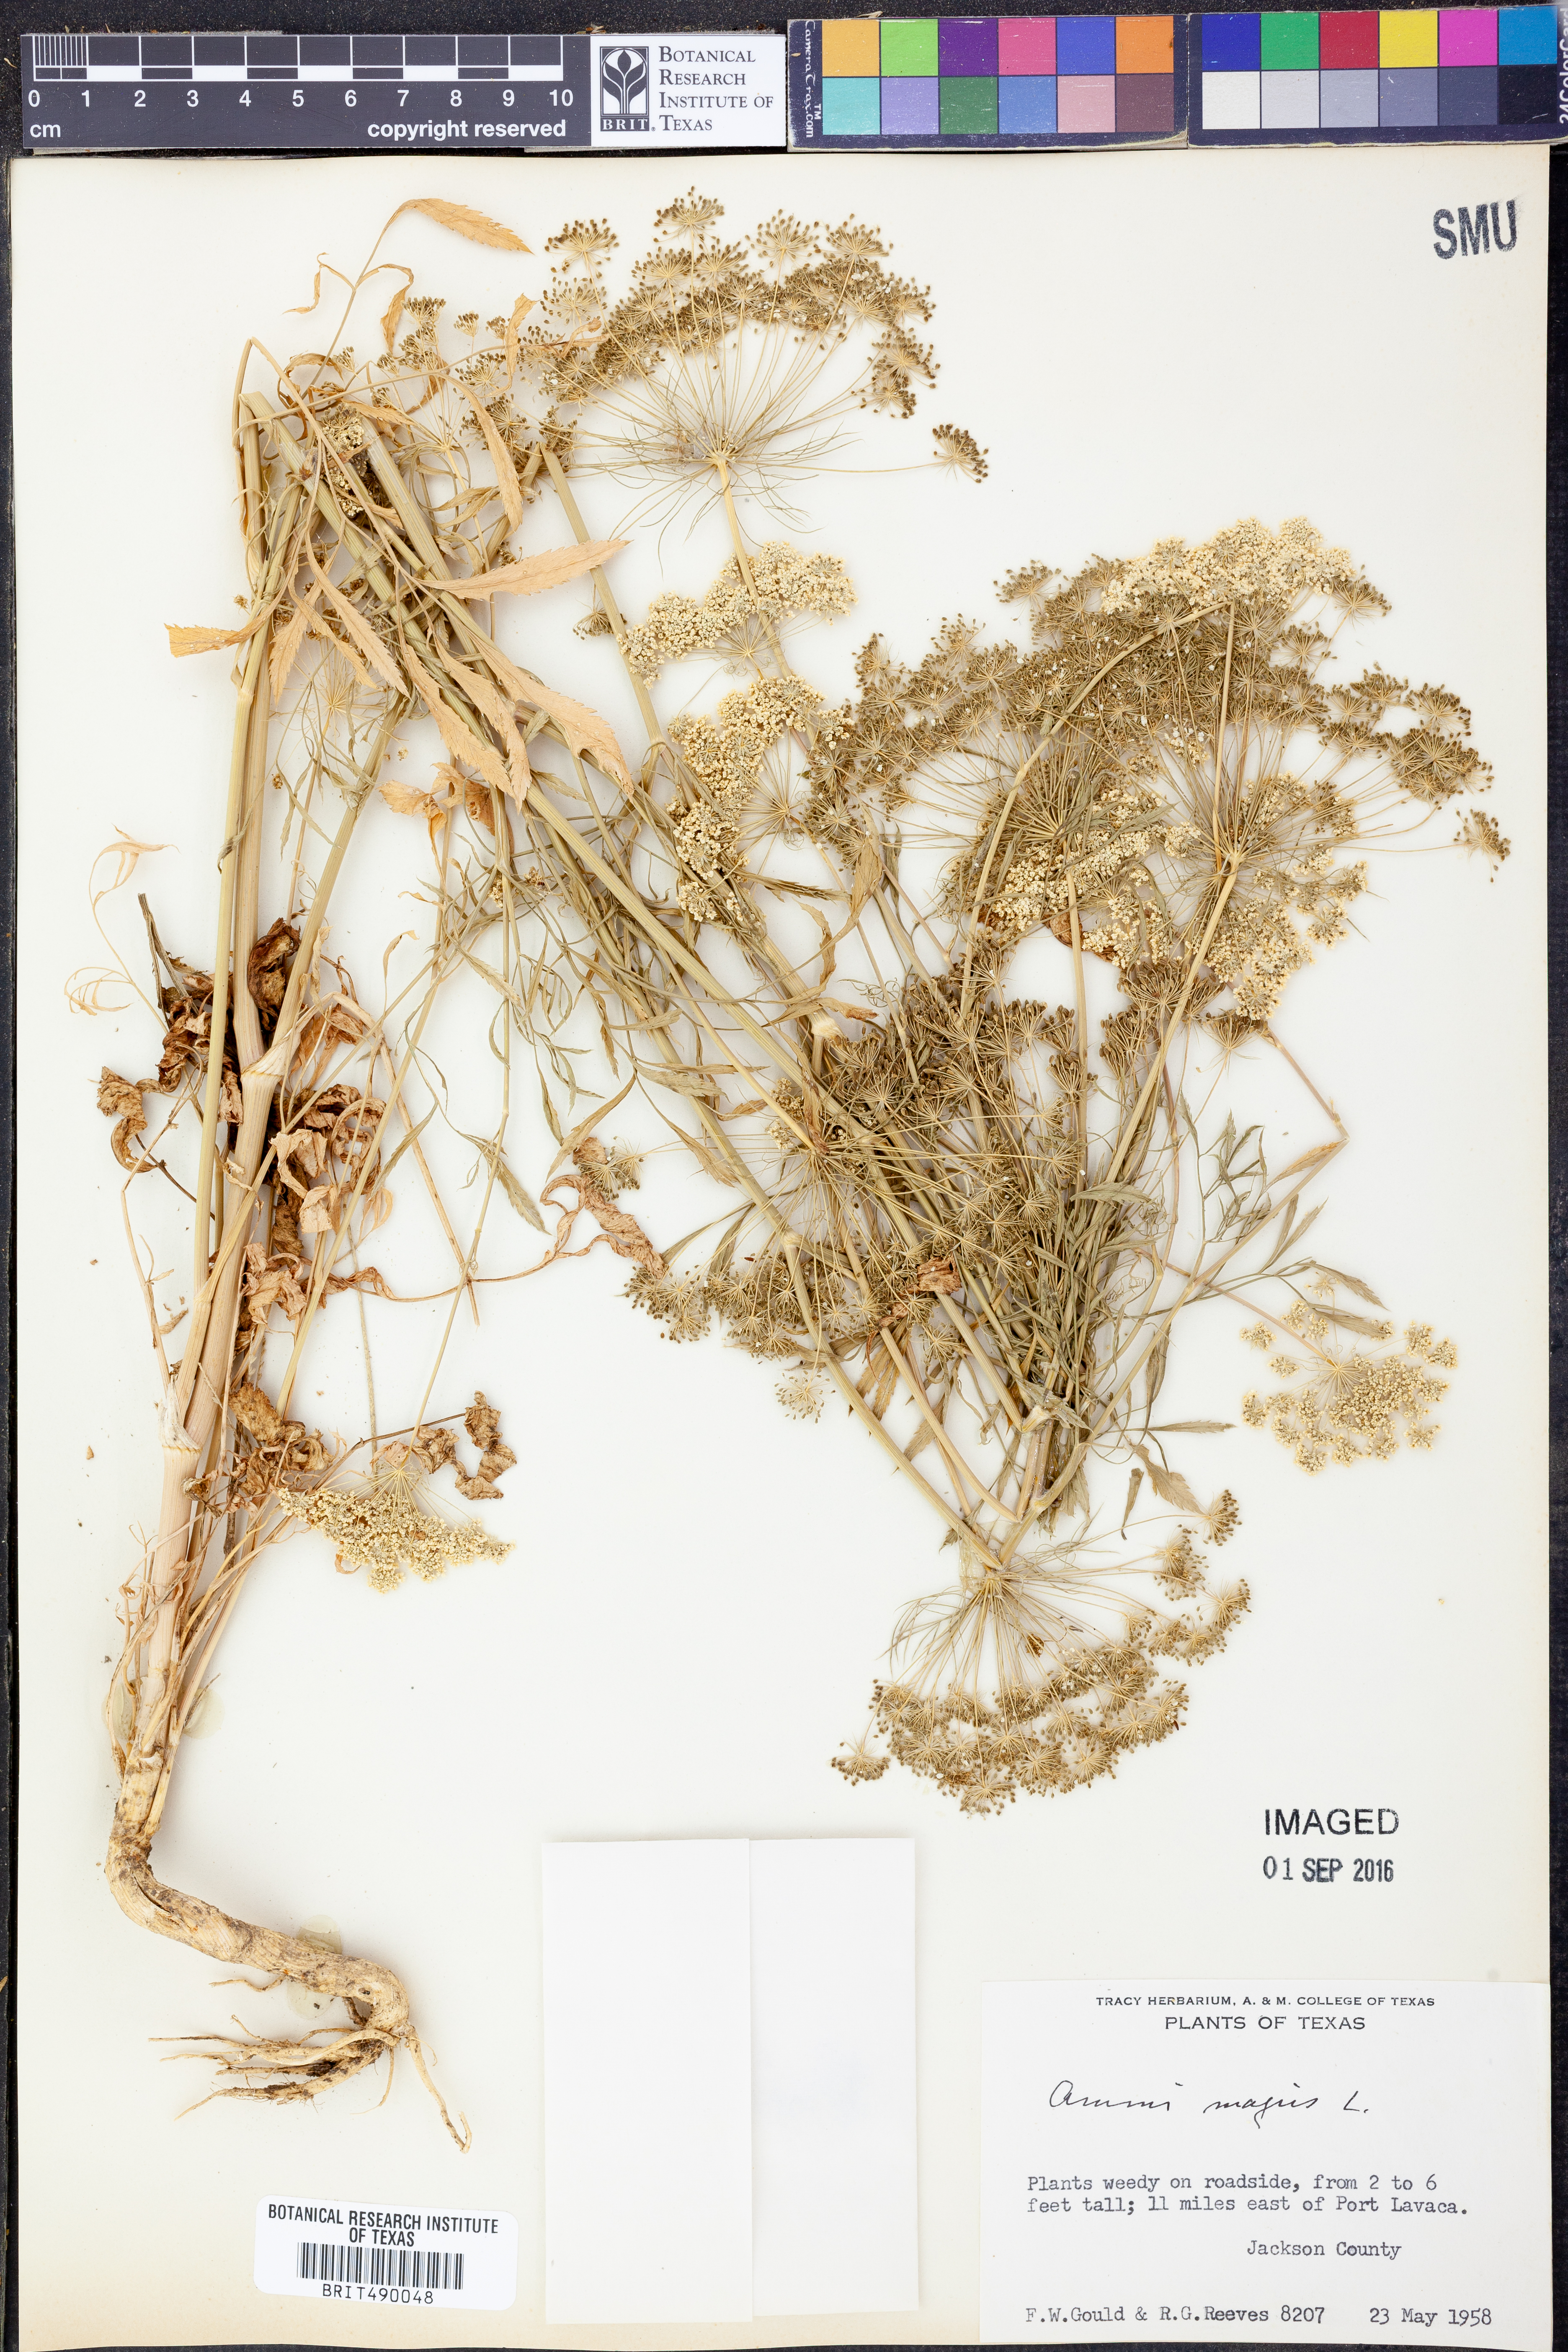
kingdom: Plantae
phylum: Tracheophyta
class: Magnoliopsida
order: Apiales
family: Apiaceae
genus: Ammi
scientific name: Ammi majus
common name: Bullwort
